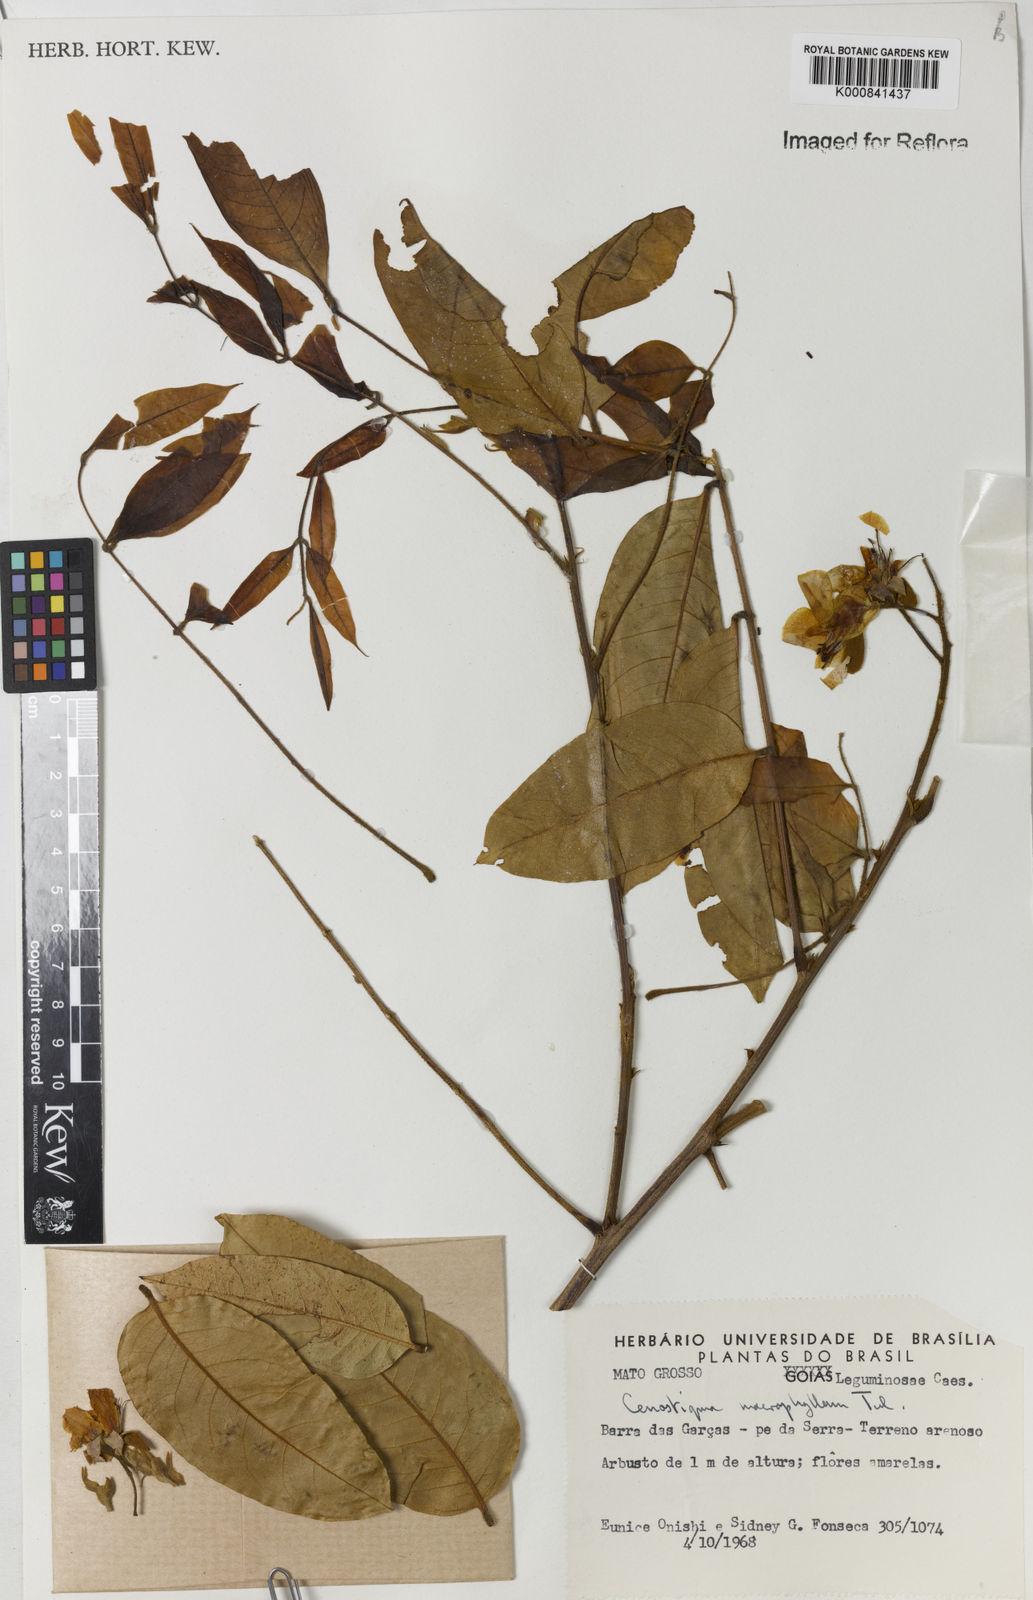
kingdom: Plantae
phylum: Tracheophyta
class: Magnoliopsida
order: Fabales
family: Fabaceae
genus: Cenostigma
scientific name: Cenostigma macrophyllum
